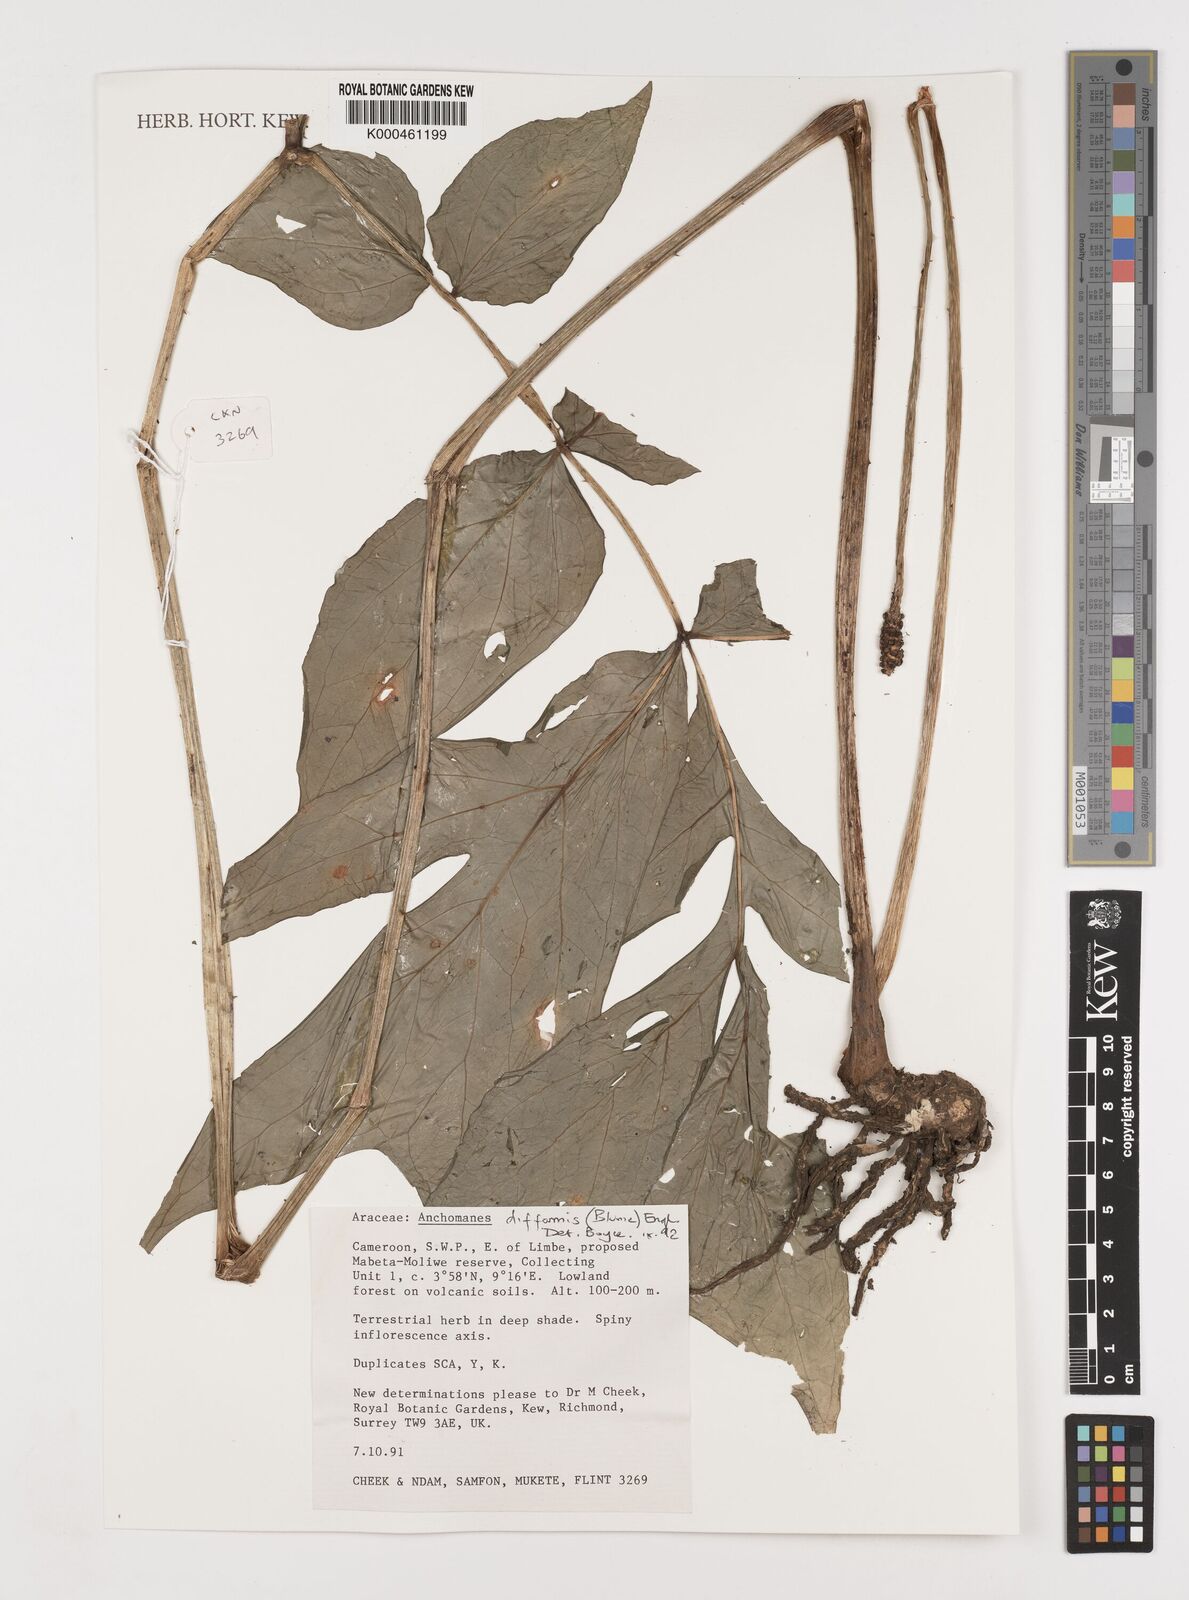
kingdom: Plantae
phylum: Tracheophyta
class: Liliopsida
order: Alismatales
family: Araceae
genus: Anchomanes
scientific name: Anchomanes difformis
